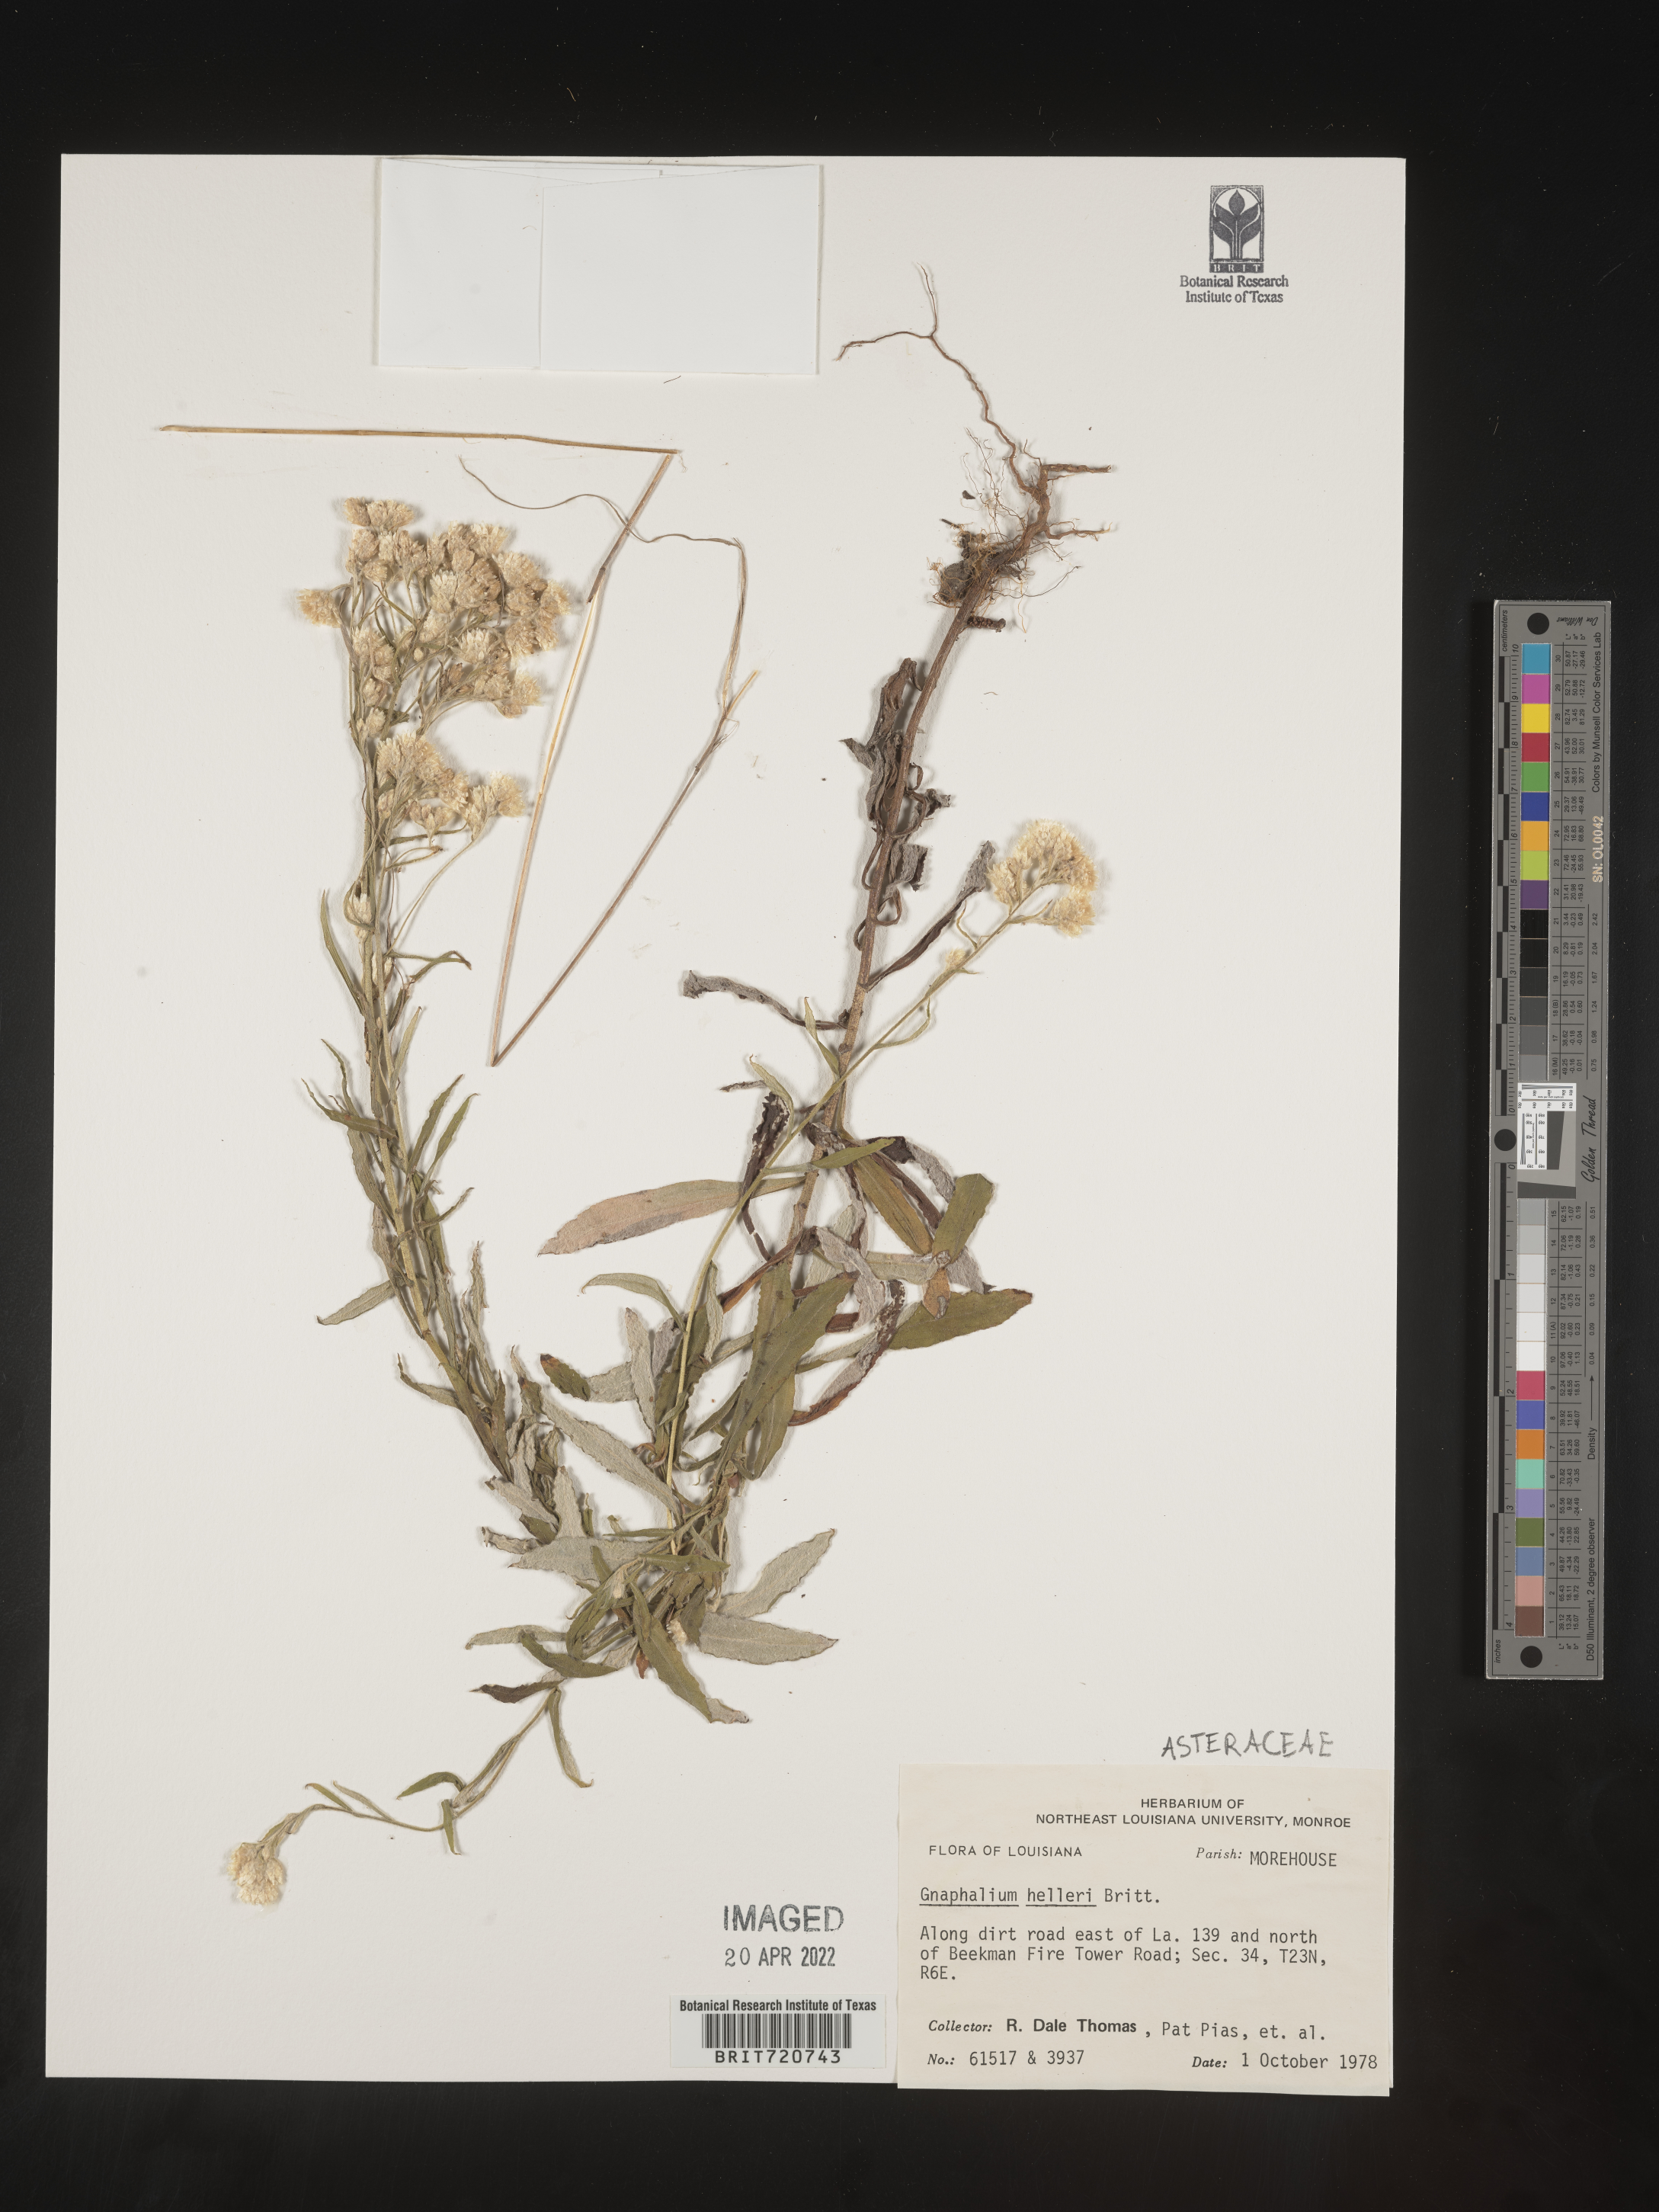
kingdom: Plantae
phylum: Tracheophyta
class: Magnoliopsida
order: Asterales
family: Asteraceae
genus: Gnaphalium
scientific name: Gnaphalium
